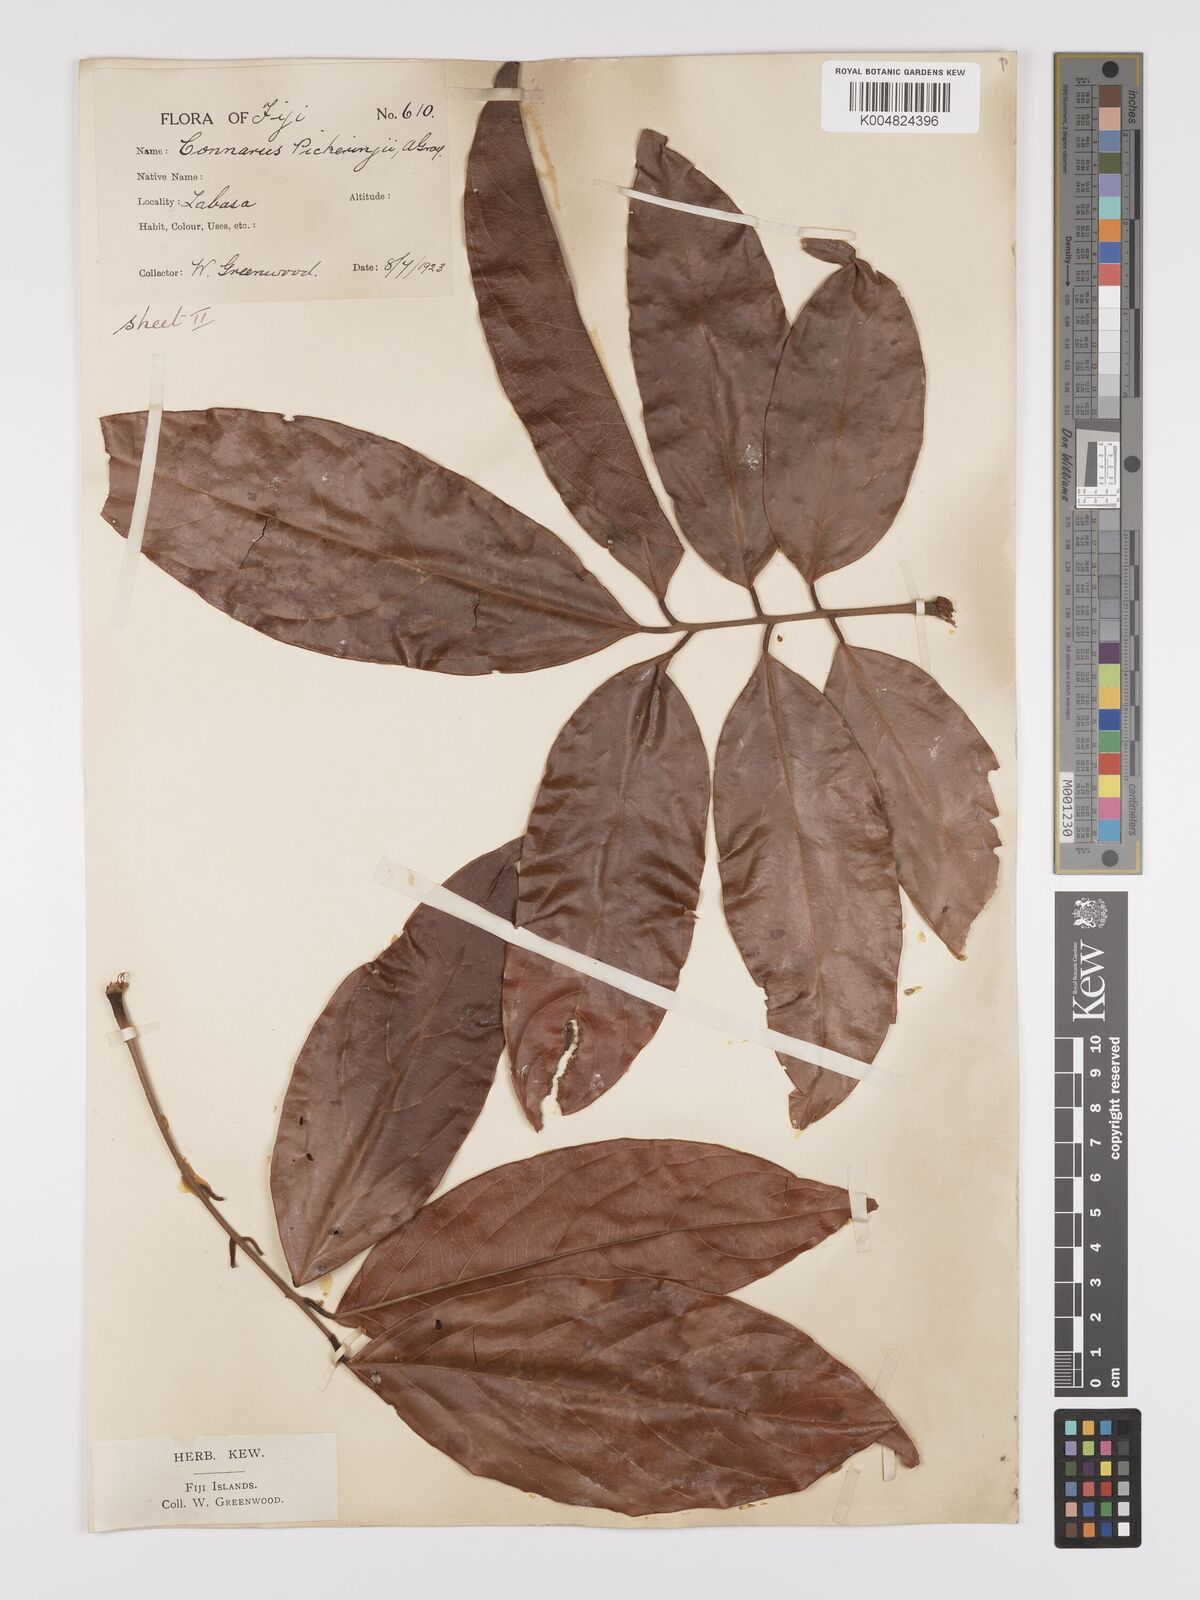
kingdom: Plantae
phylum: Tracheophyta
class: Magnoliopsida
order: Oxalidales
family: Connaraceae
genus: Connarus
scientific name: Connarus pickeringii
